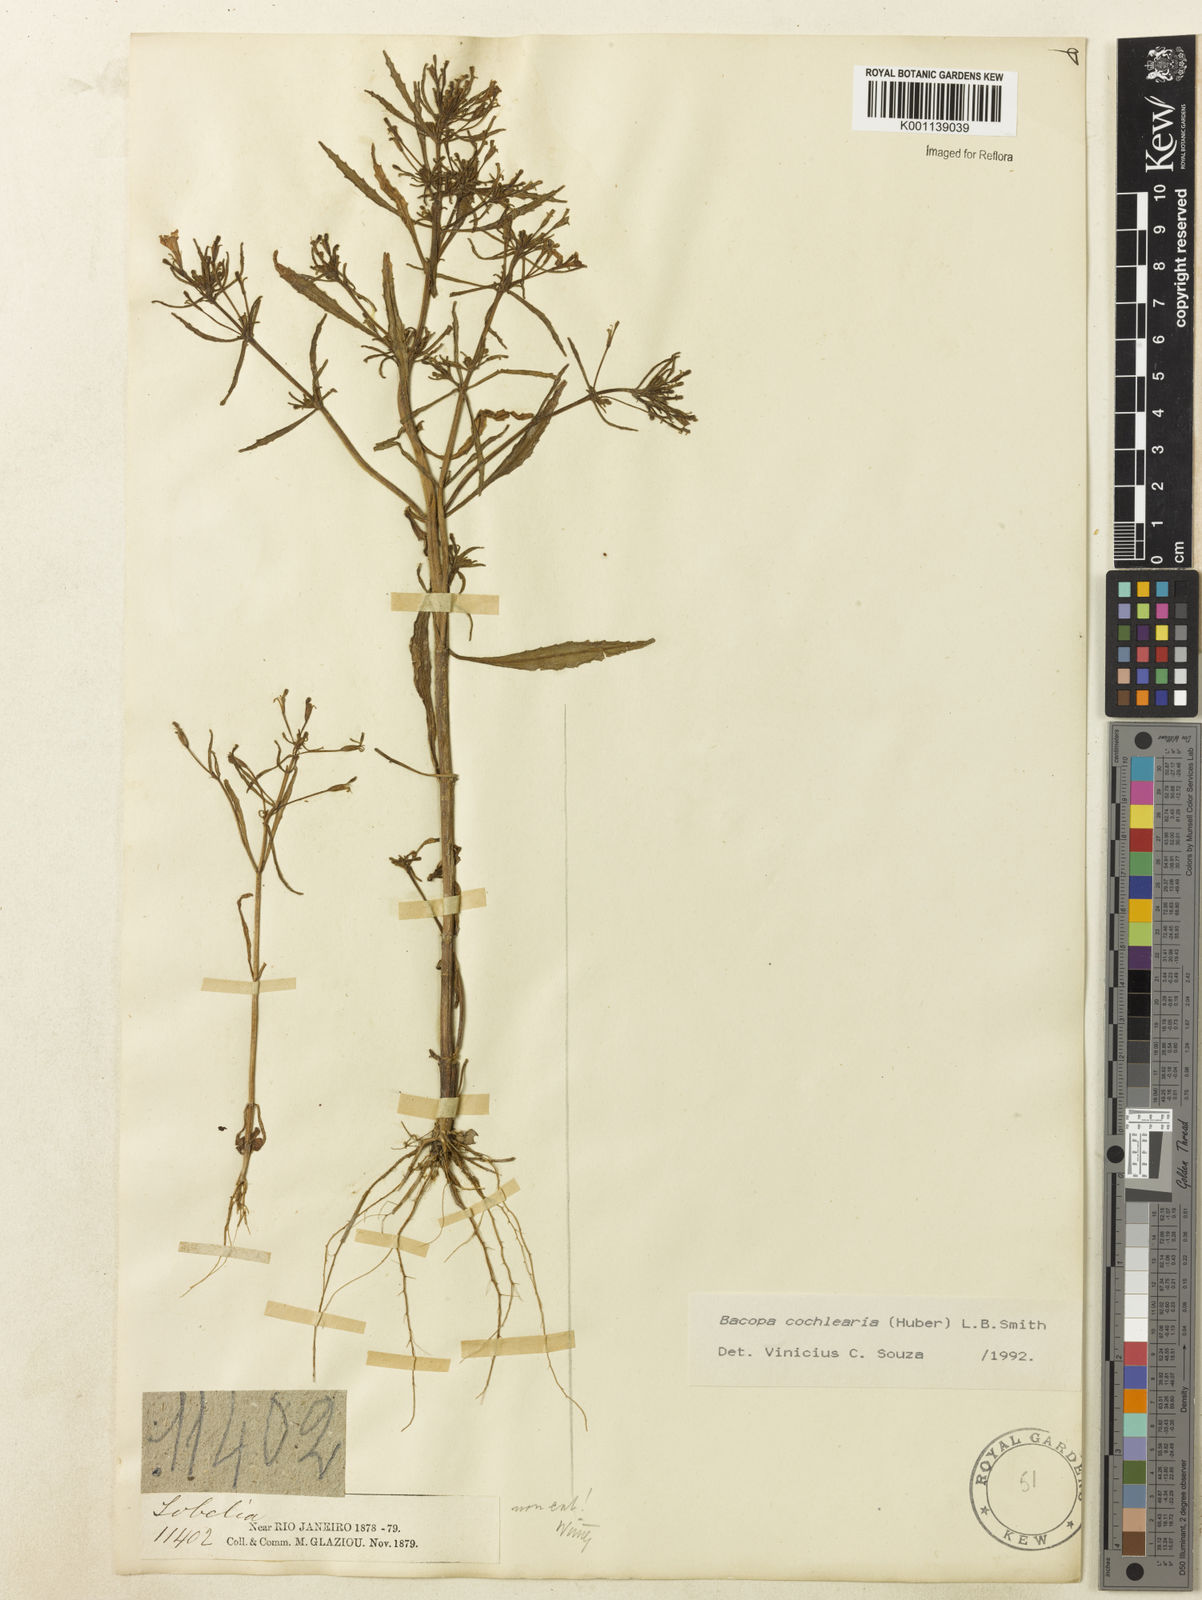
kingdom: Plantae
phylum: Tracheophyta
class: Magnoliopsida
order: Lamiales
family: Plantaginaceae
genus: Bacopa
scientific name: Bacopa cochlearia
